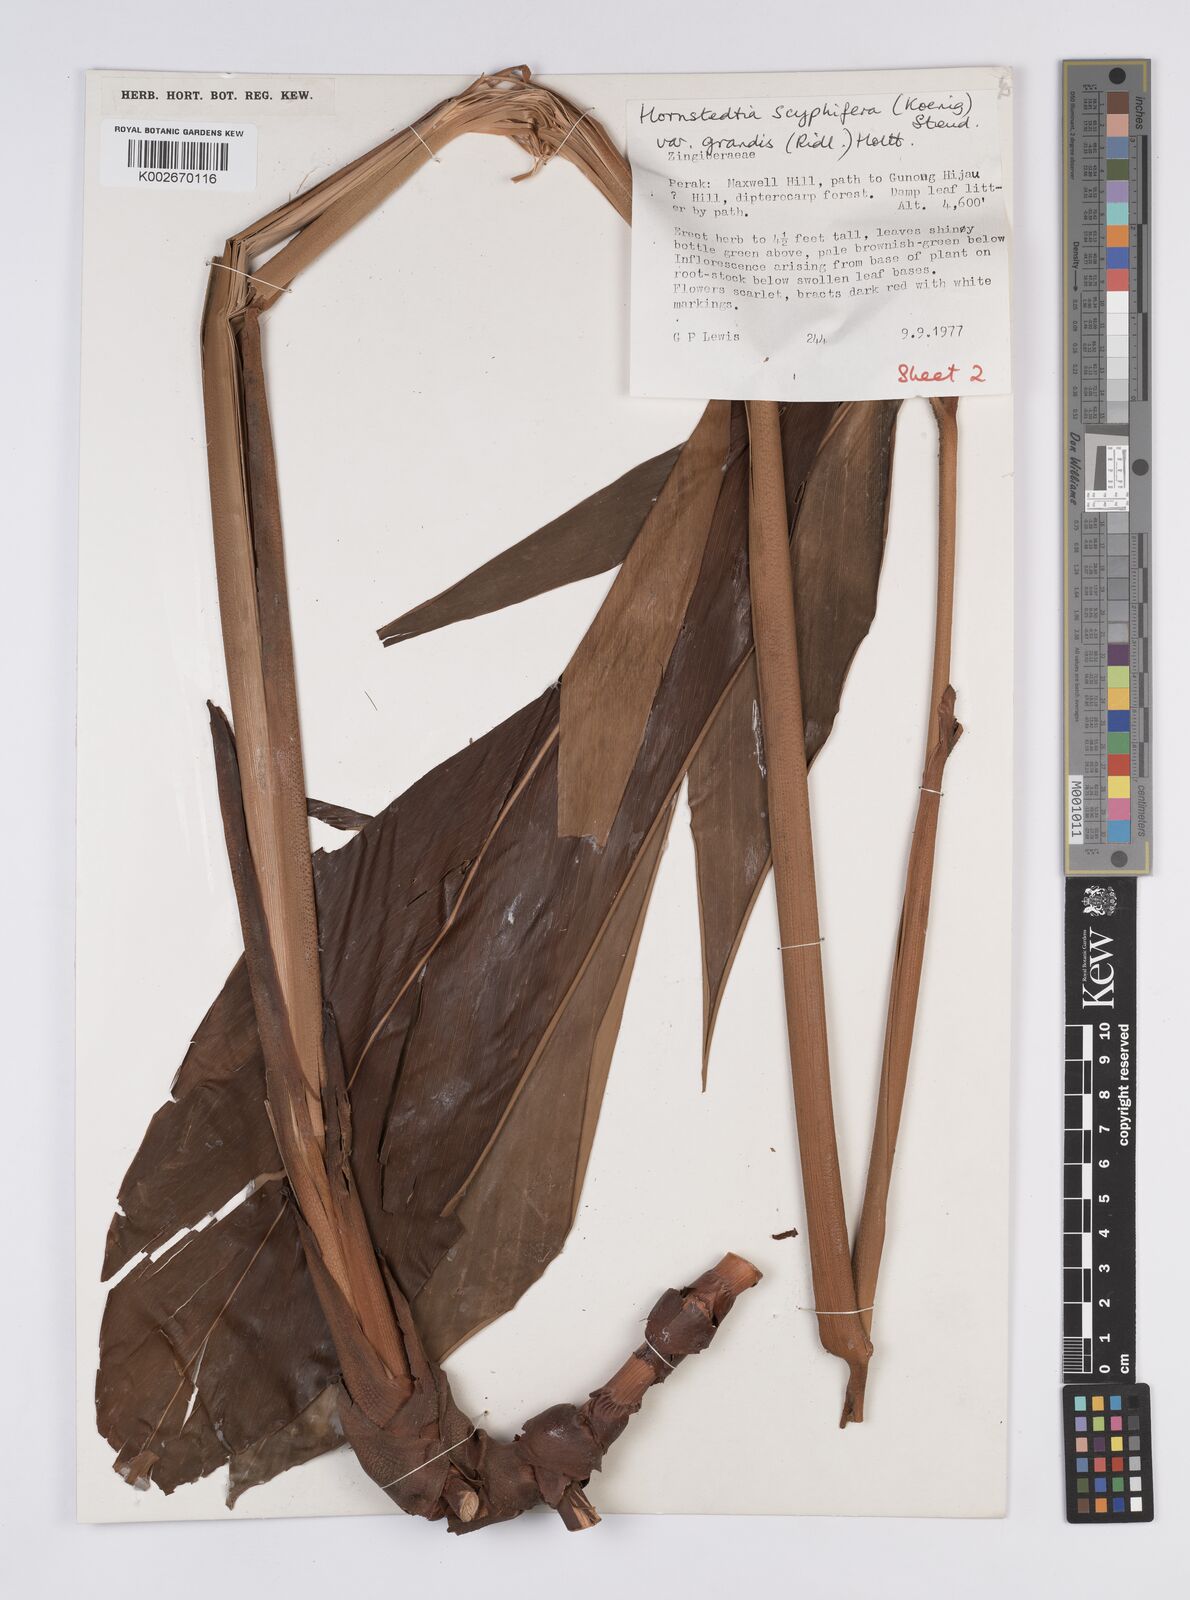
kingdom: Plantae
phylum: Tracheophyta
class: Liliopsida
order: Zingiberales
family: Zingiberaceae
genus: Hornstedtia
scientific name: Hornstedtia scyphifera
